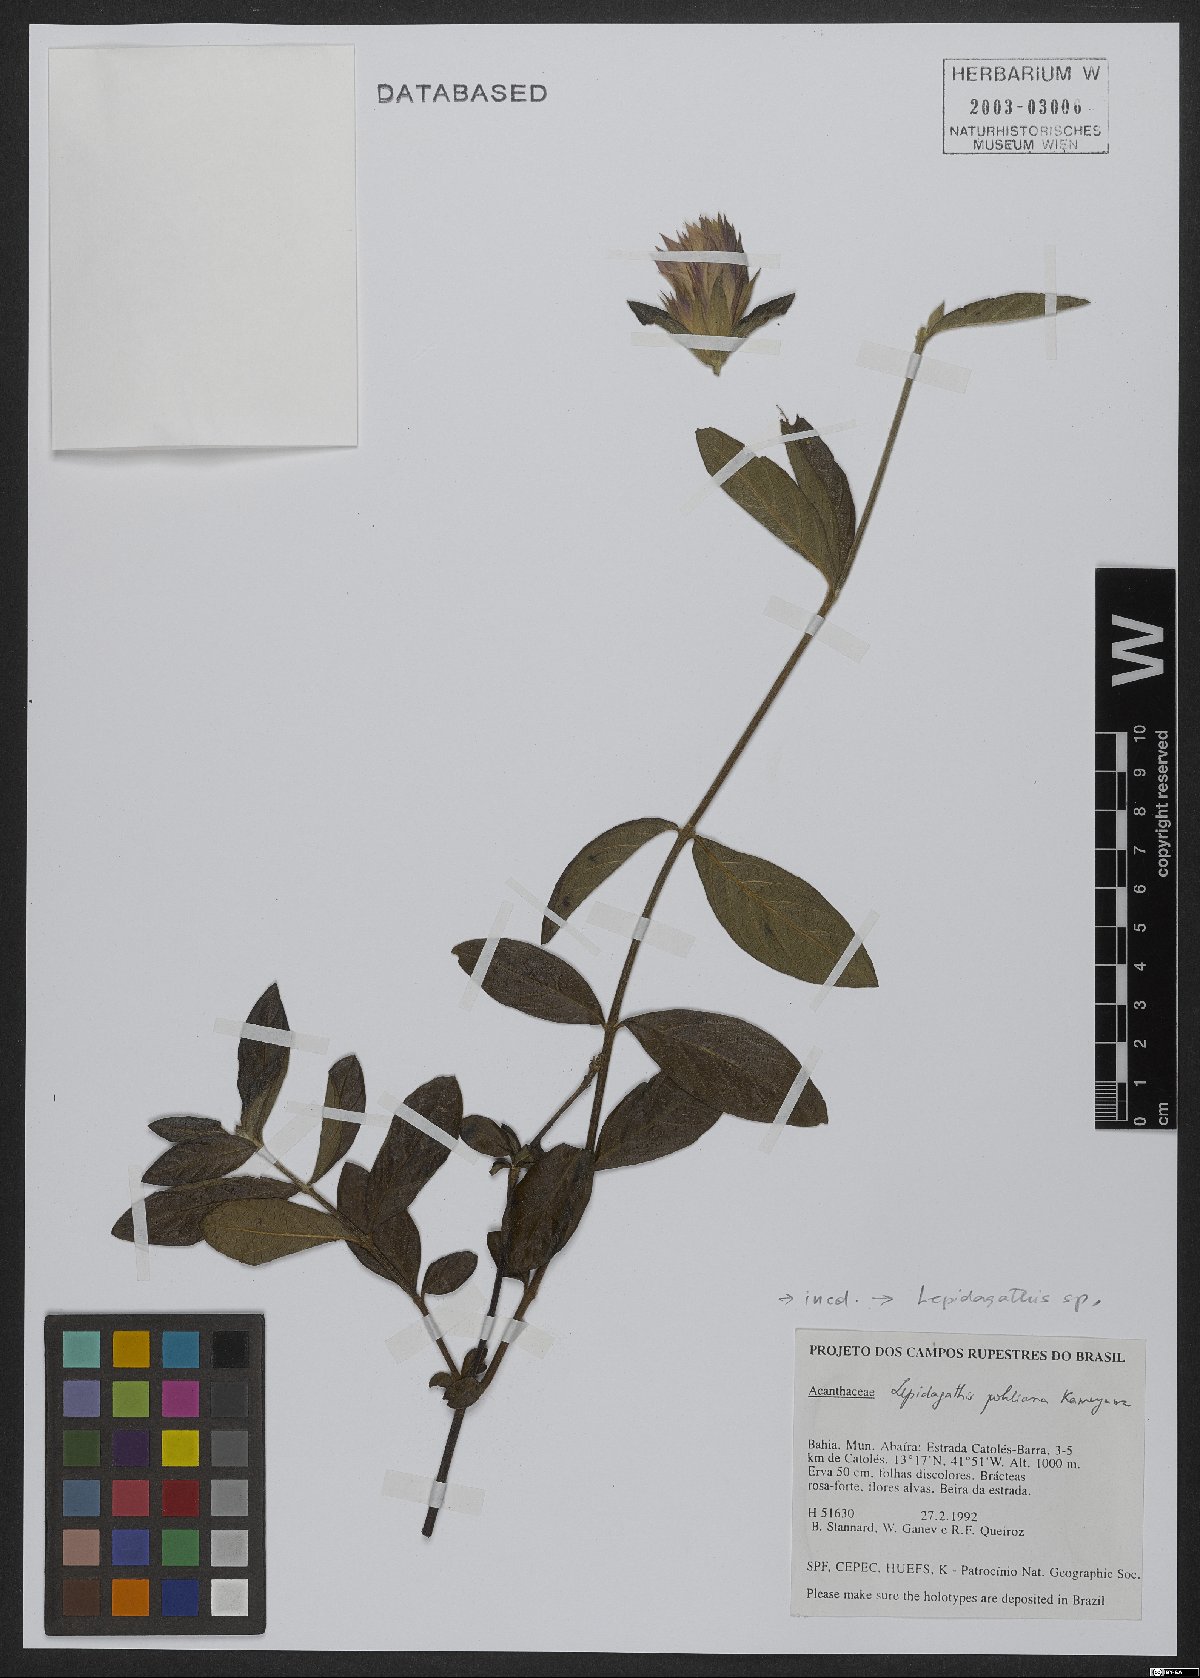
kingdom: Plantae
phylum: Tracheophyta
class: Magnoliopsida
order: Lamiales
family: Acanthaceae
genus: Lepidagathis
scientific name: Lepidagathis
